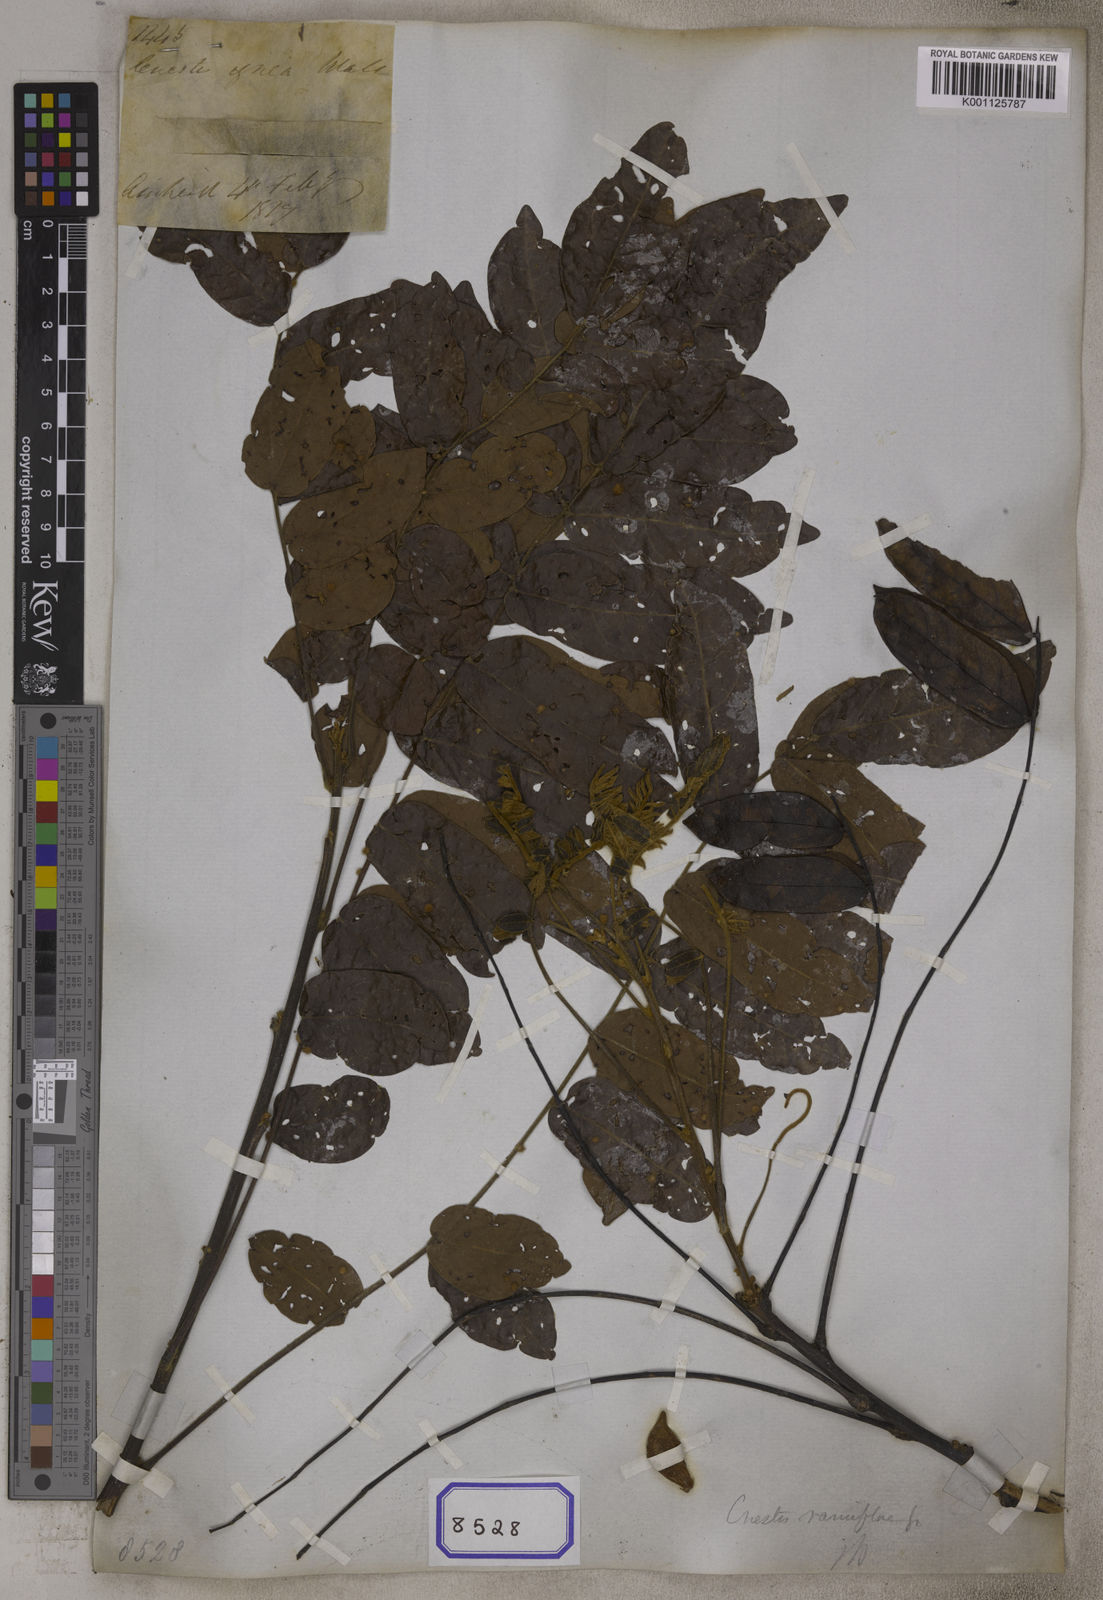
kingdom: Plantae
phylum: Tracheophyta
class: Magnoliopsida
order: Oxalidales
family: Connaraceae
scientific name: Connaraceae
